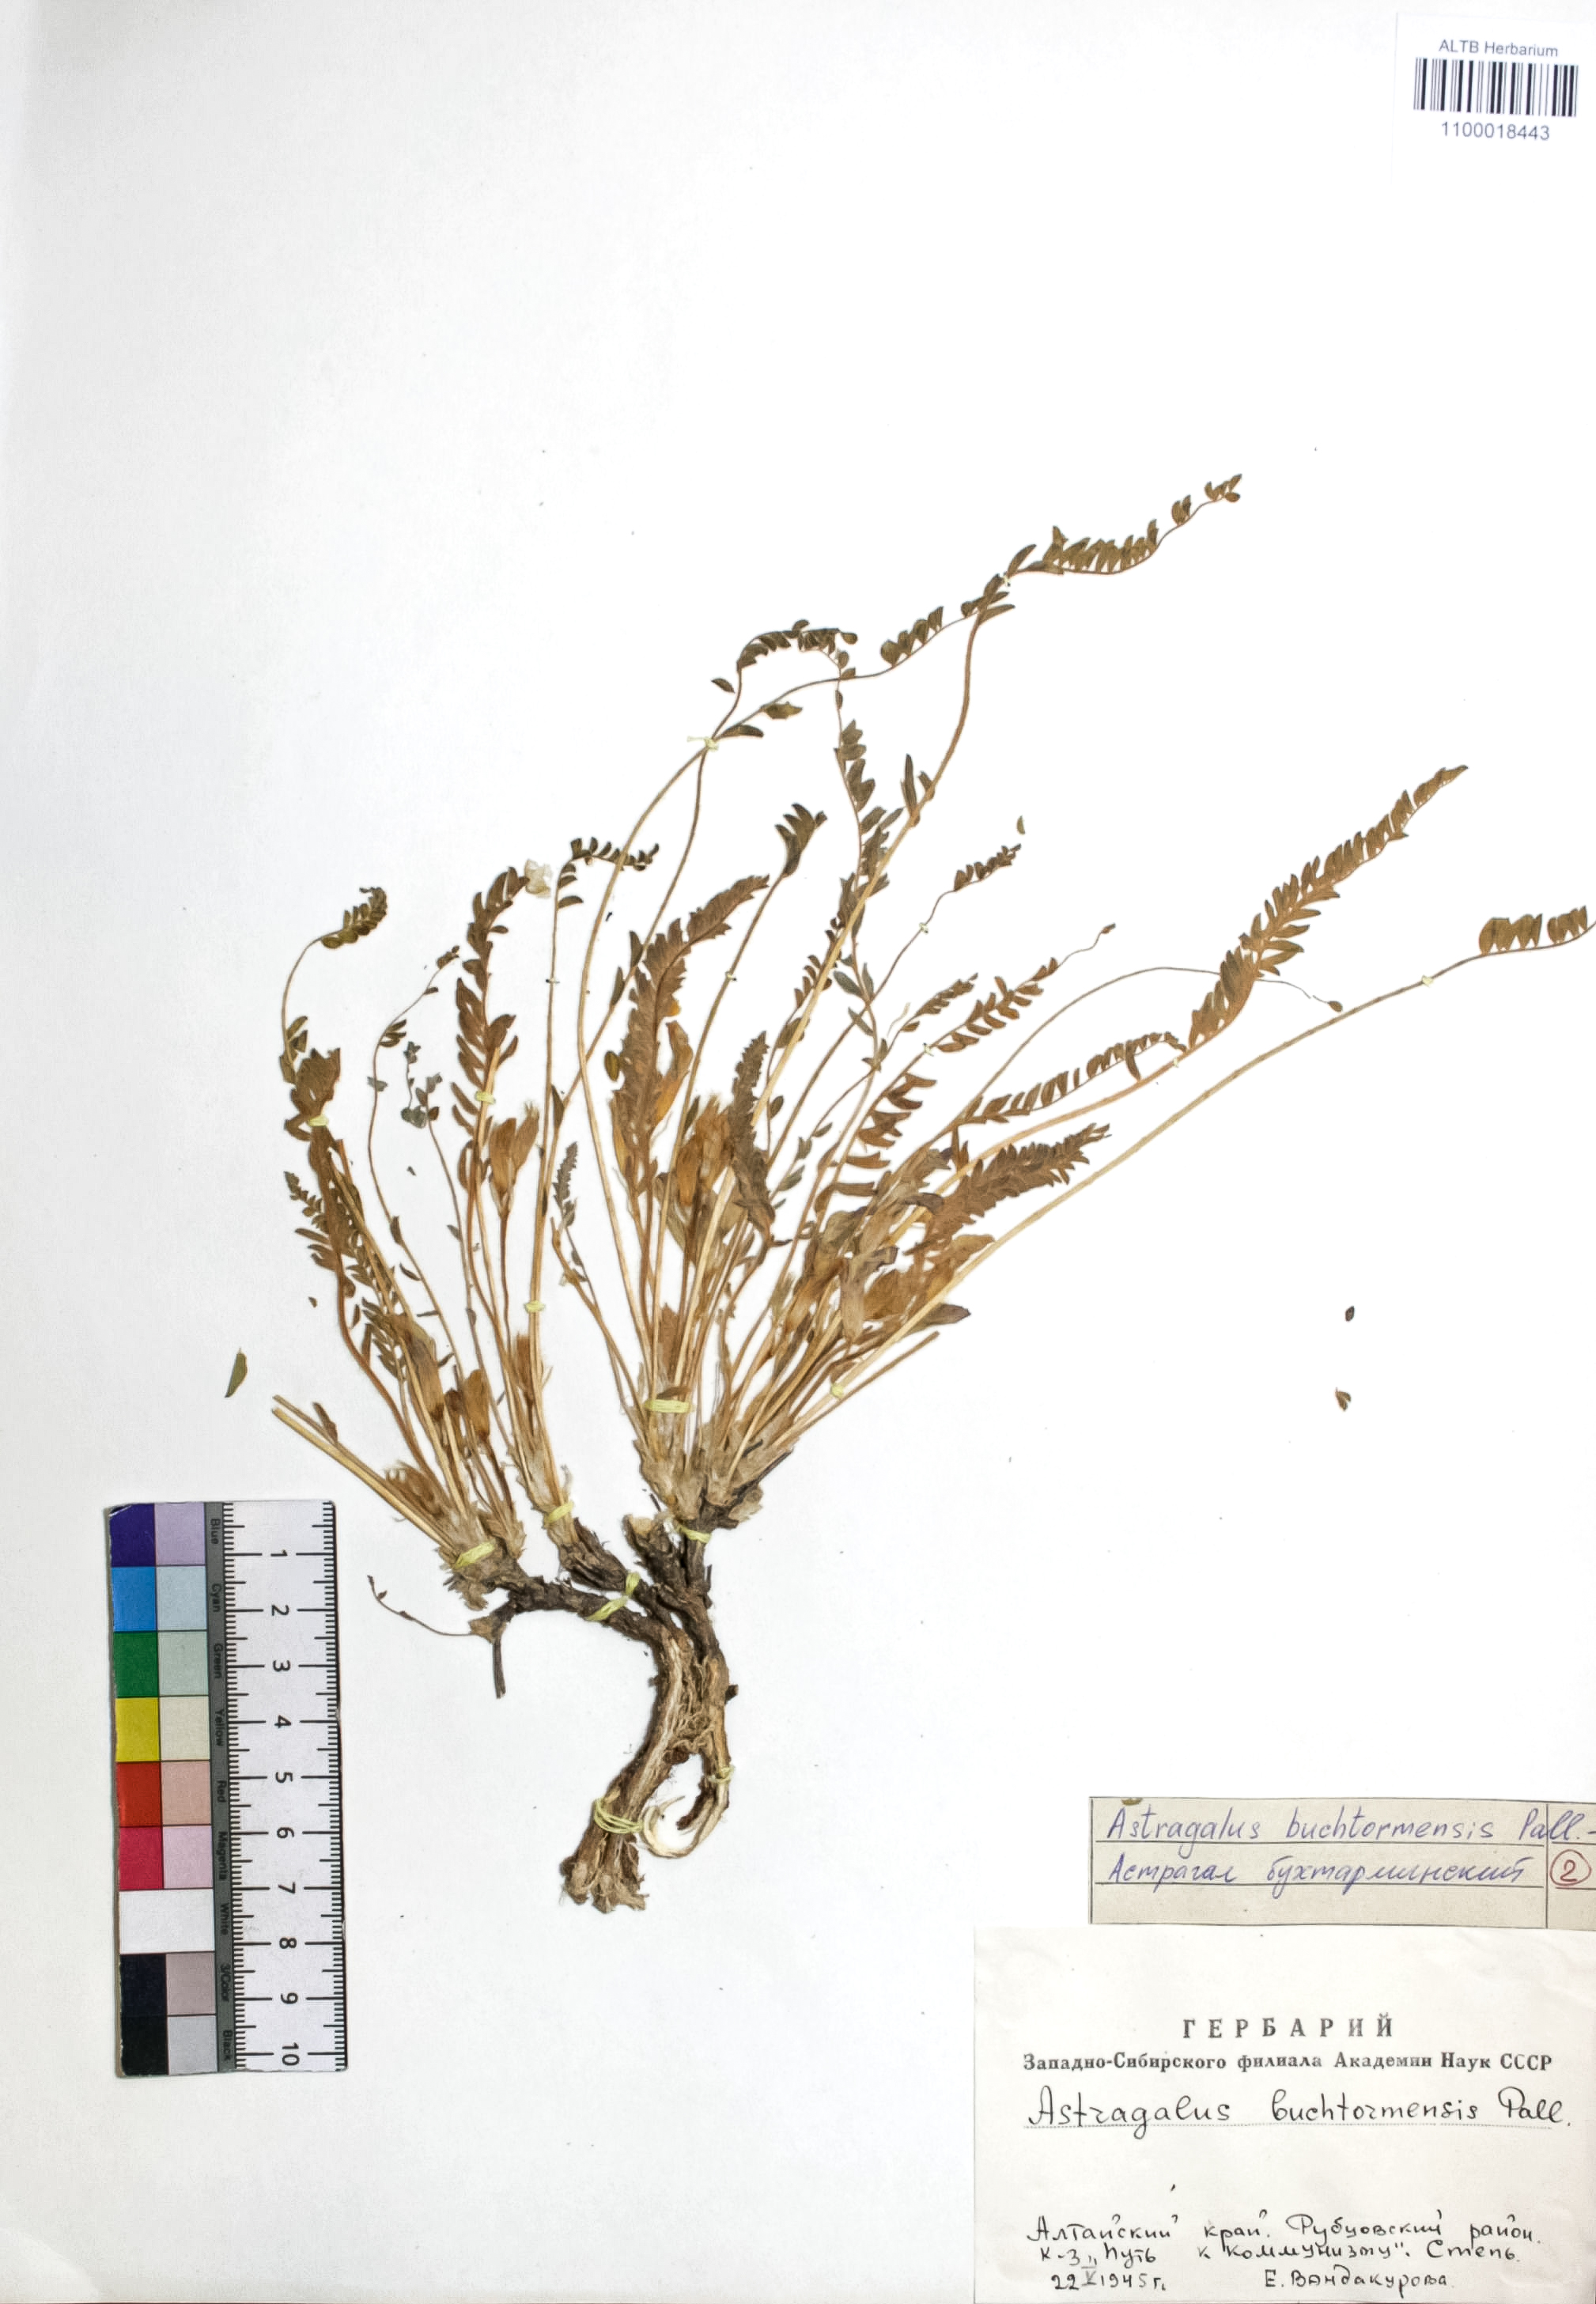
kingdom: Plantae
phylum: Tracheophyta
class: Magnoliopsida
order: Fabales
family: Fabaceae
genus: Astragalus
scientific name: Astragalus buchtormensis
